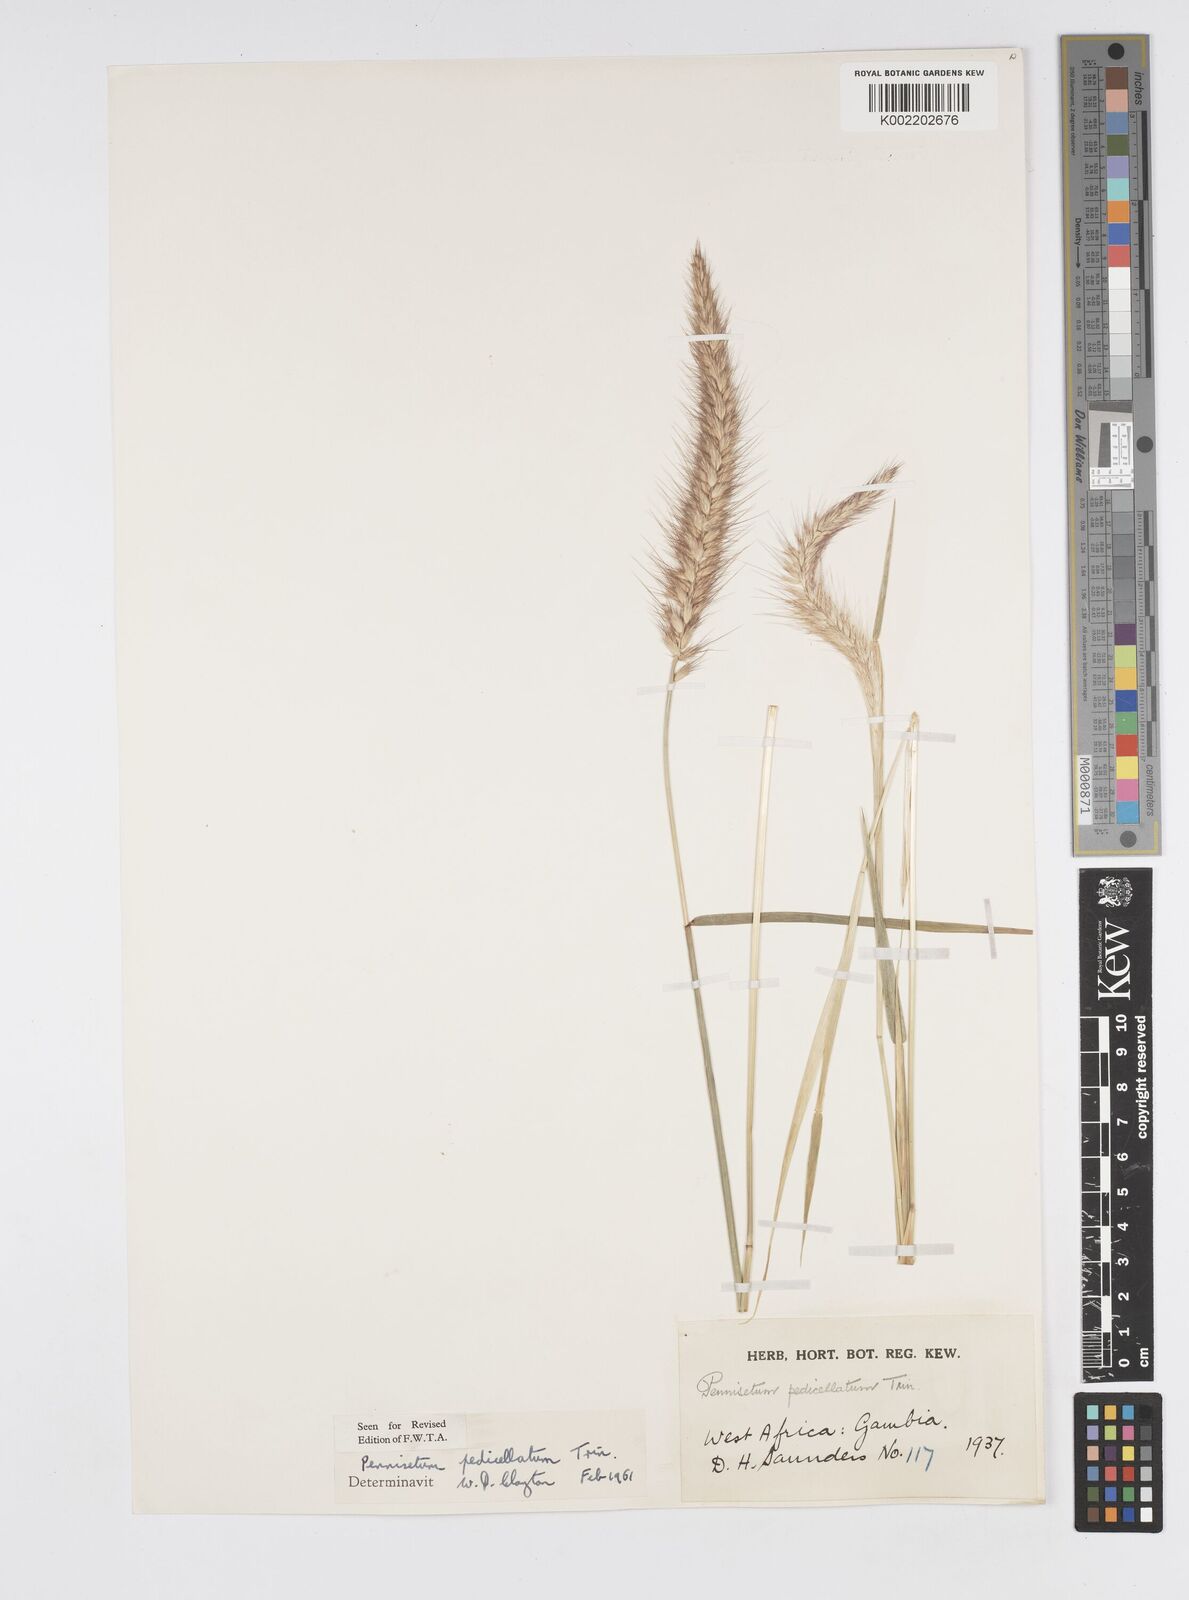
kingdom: Plantae
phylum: Tracheophyta
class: Liliopsida
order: Poales
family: Poaceae
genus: Cenchrus
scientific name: Cenchrus pedicellatus
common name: Hairy fountain grass
